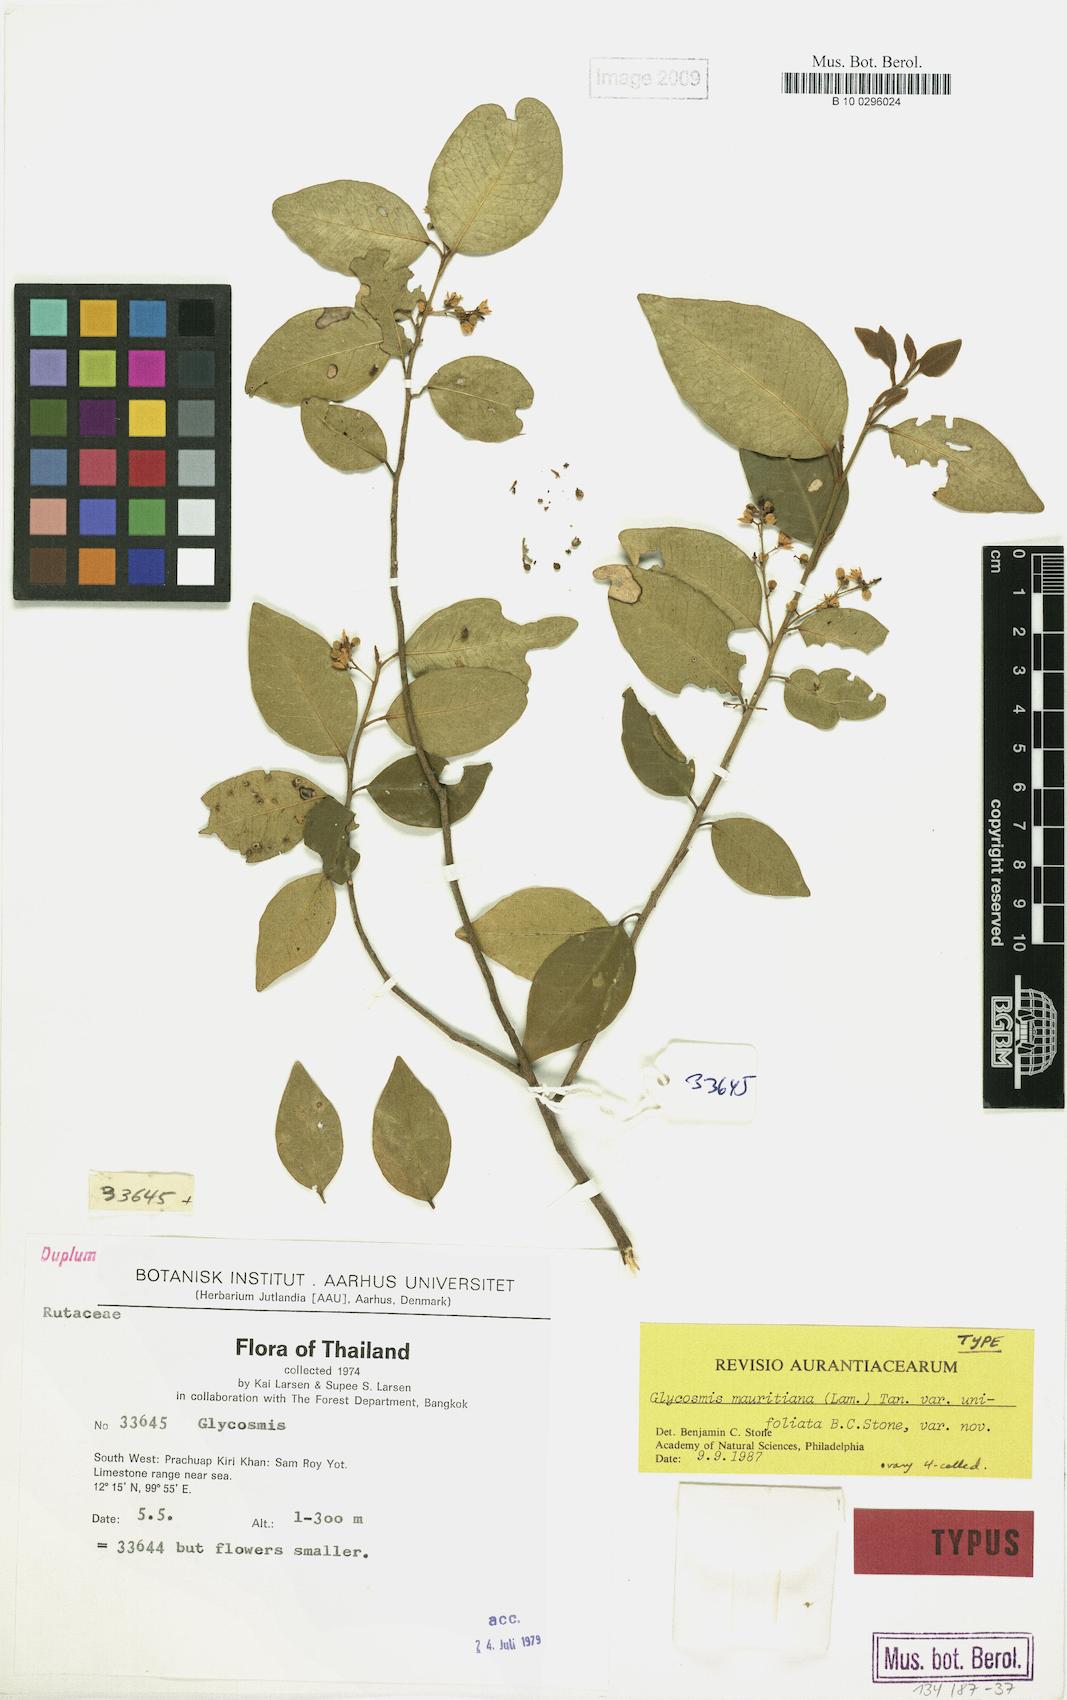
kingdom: Plantae
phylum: Tracheophyta
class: Magnoliopsida
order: Sapindales
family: Rutaceae
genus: Glycosmis
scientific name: Glycosmis mauritiana
